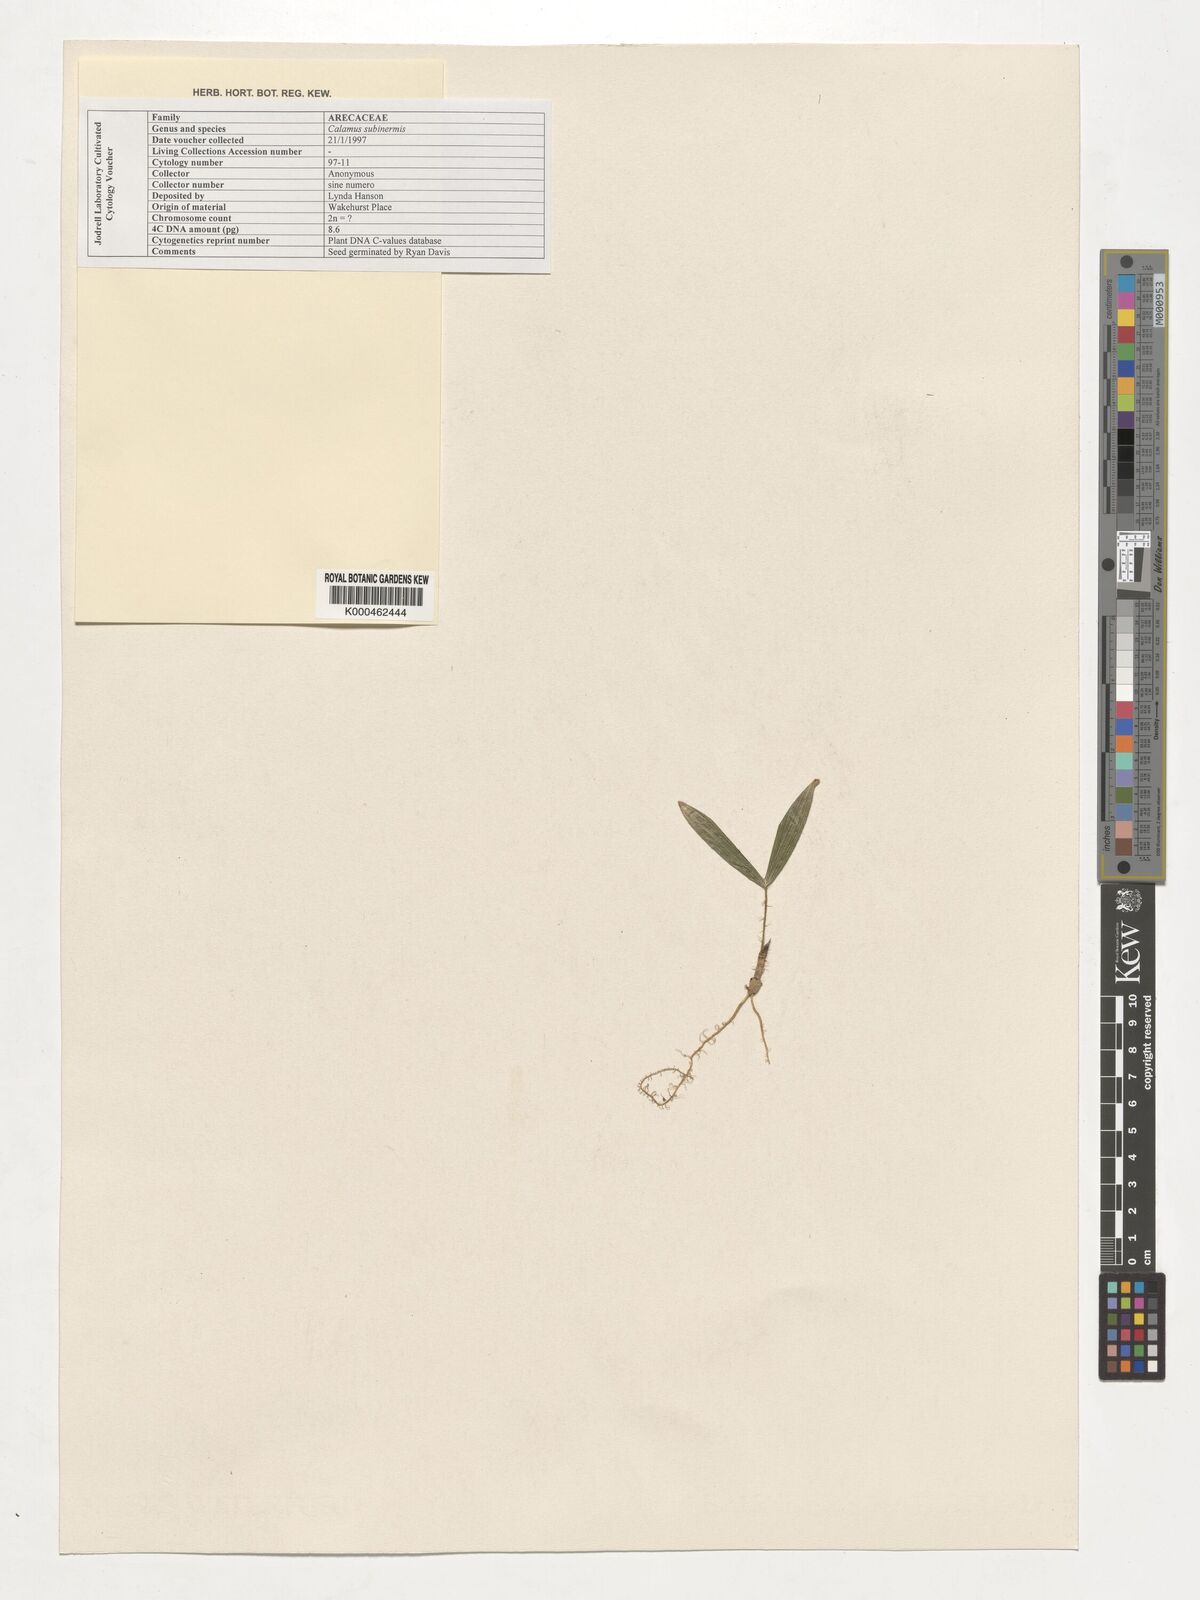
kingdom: Plantae
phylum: Tracheophyta
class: Liliopsida
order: Arecales
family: Arecaceae
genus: Calamus
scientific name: Calamus moseleyanus
